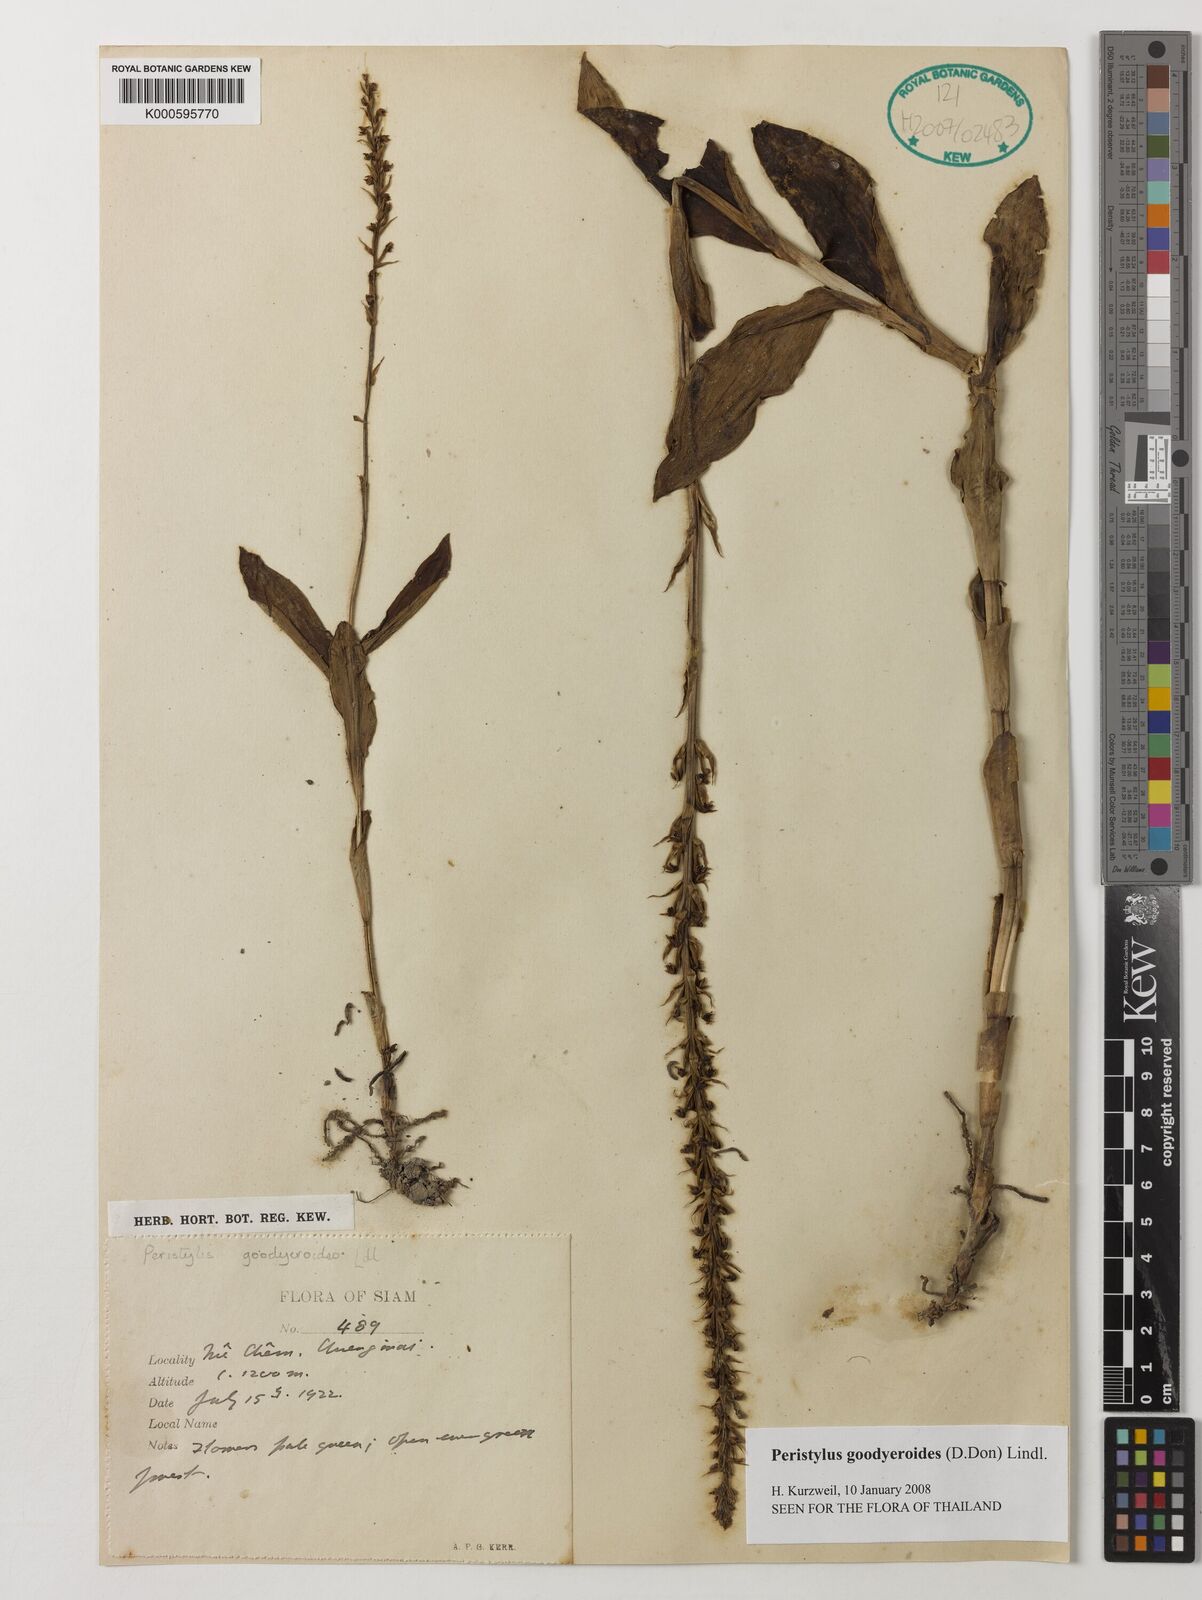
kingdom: Plantae
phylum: Tracheophyta
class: Liliopsida
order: Asparagales
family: Orchidaceae
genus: Peristylus
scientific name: Peristylus goodyeroides
